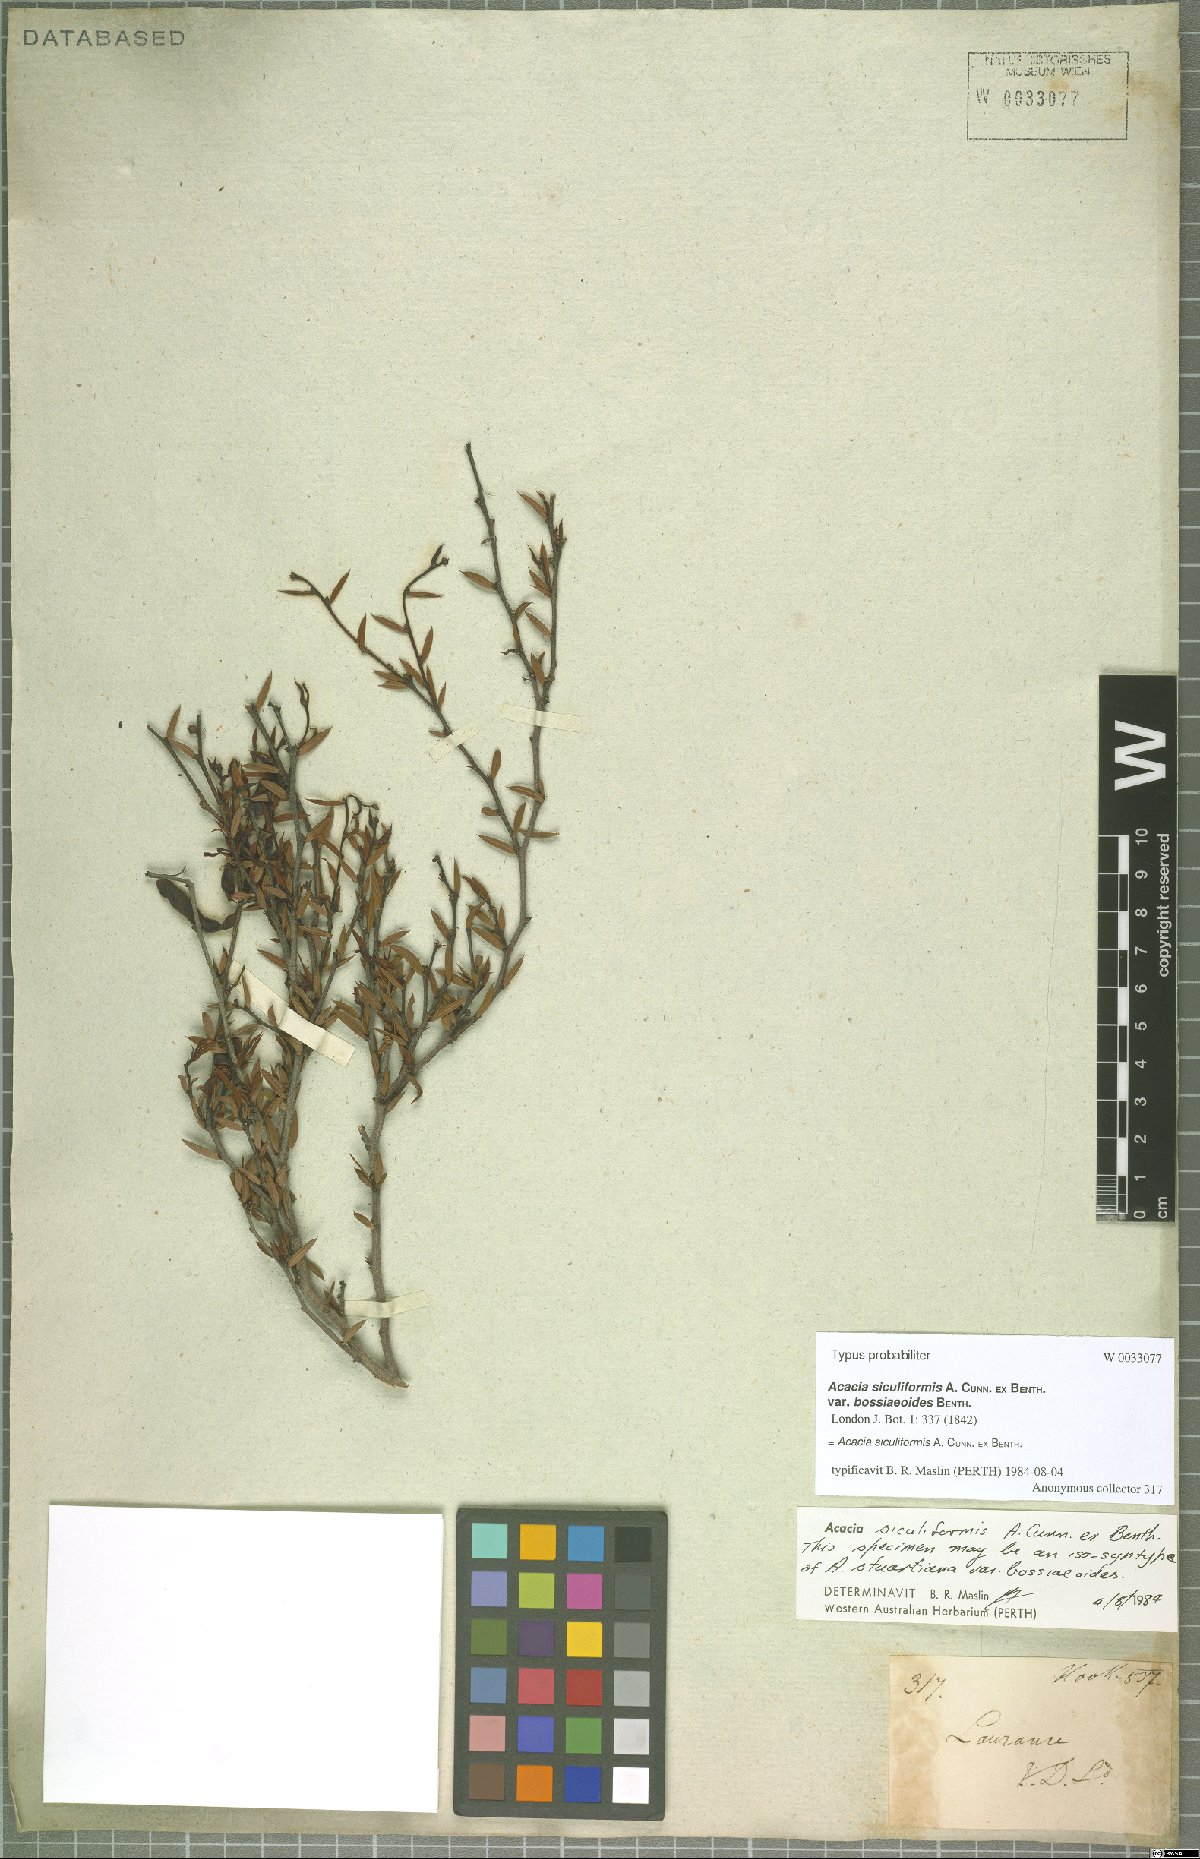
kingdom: Plantae
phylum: Tracheophyta
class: Magnoliopsida
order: Fabales
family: Fabaceae
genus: Acacia
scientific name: Acacia siculiformis
